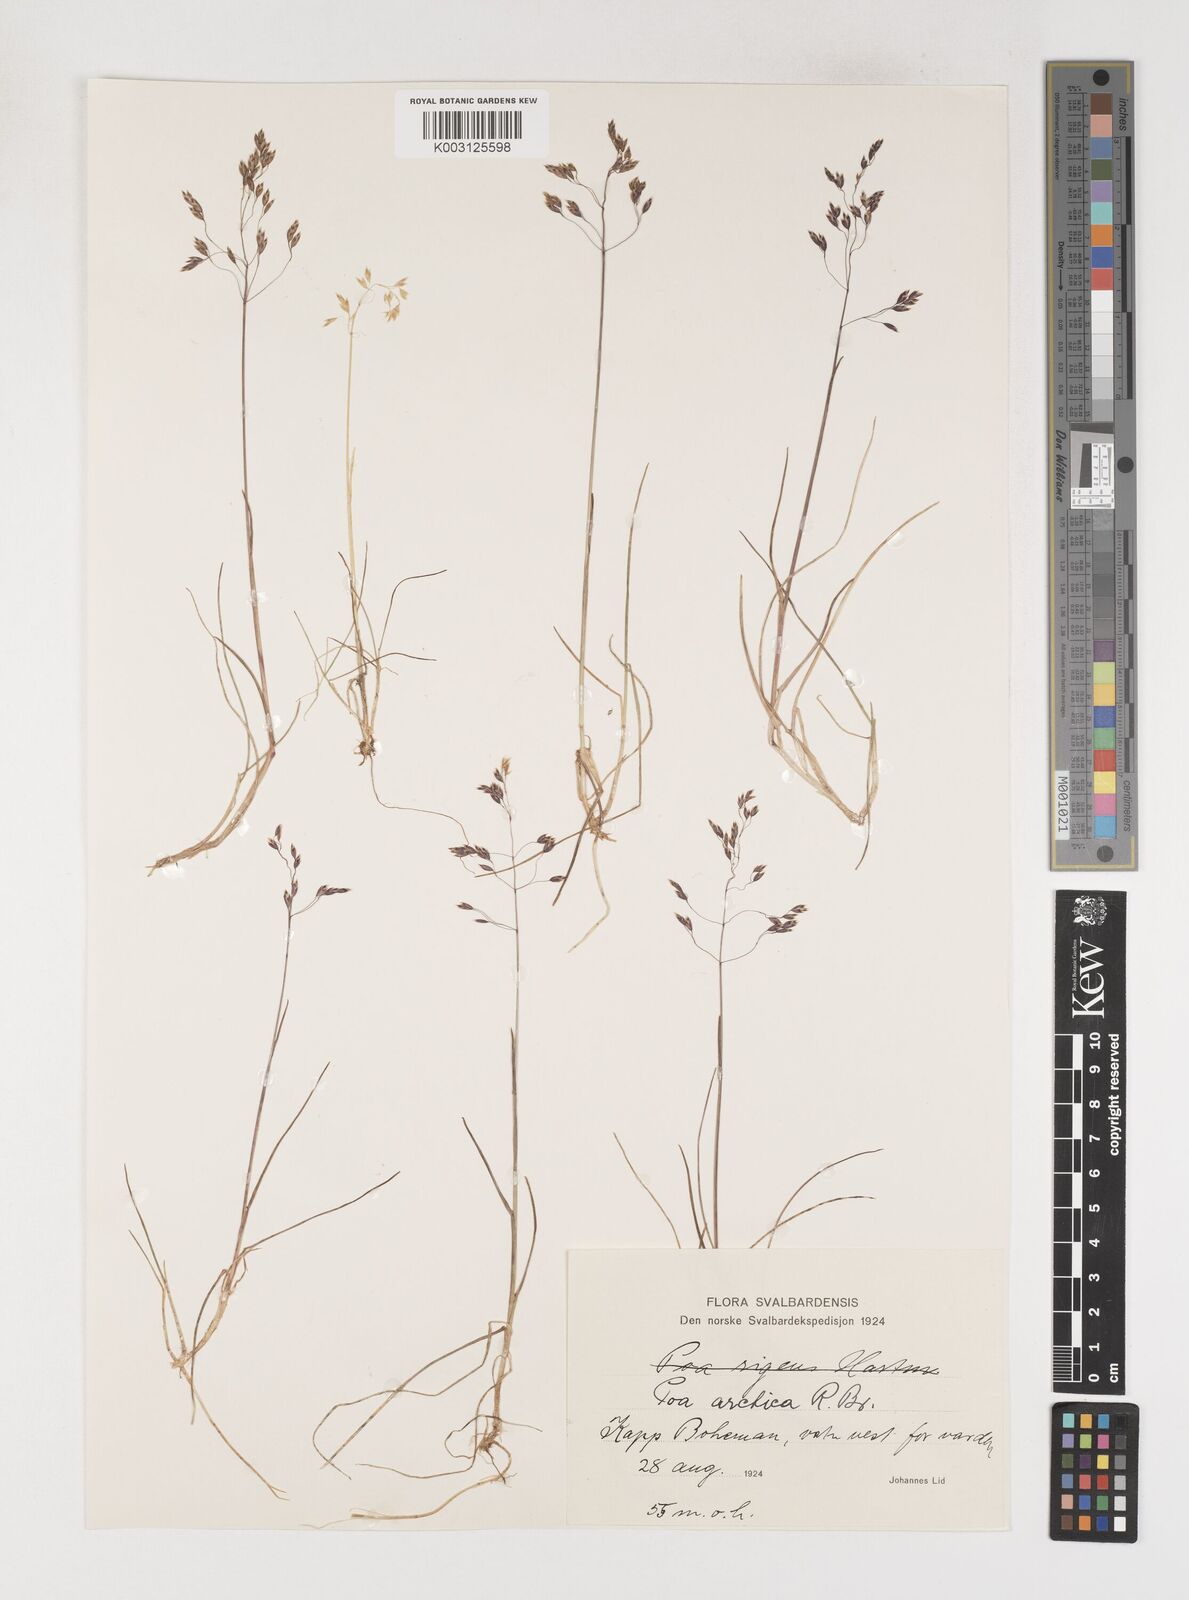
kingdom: Plantae
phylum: Tracheophyta
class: Liliopsida
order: Poales
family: Poaceae
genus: Poa
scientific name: Poa arctica
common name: Arctic bluegrass
